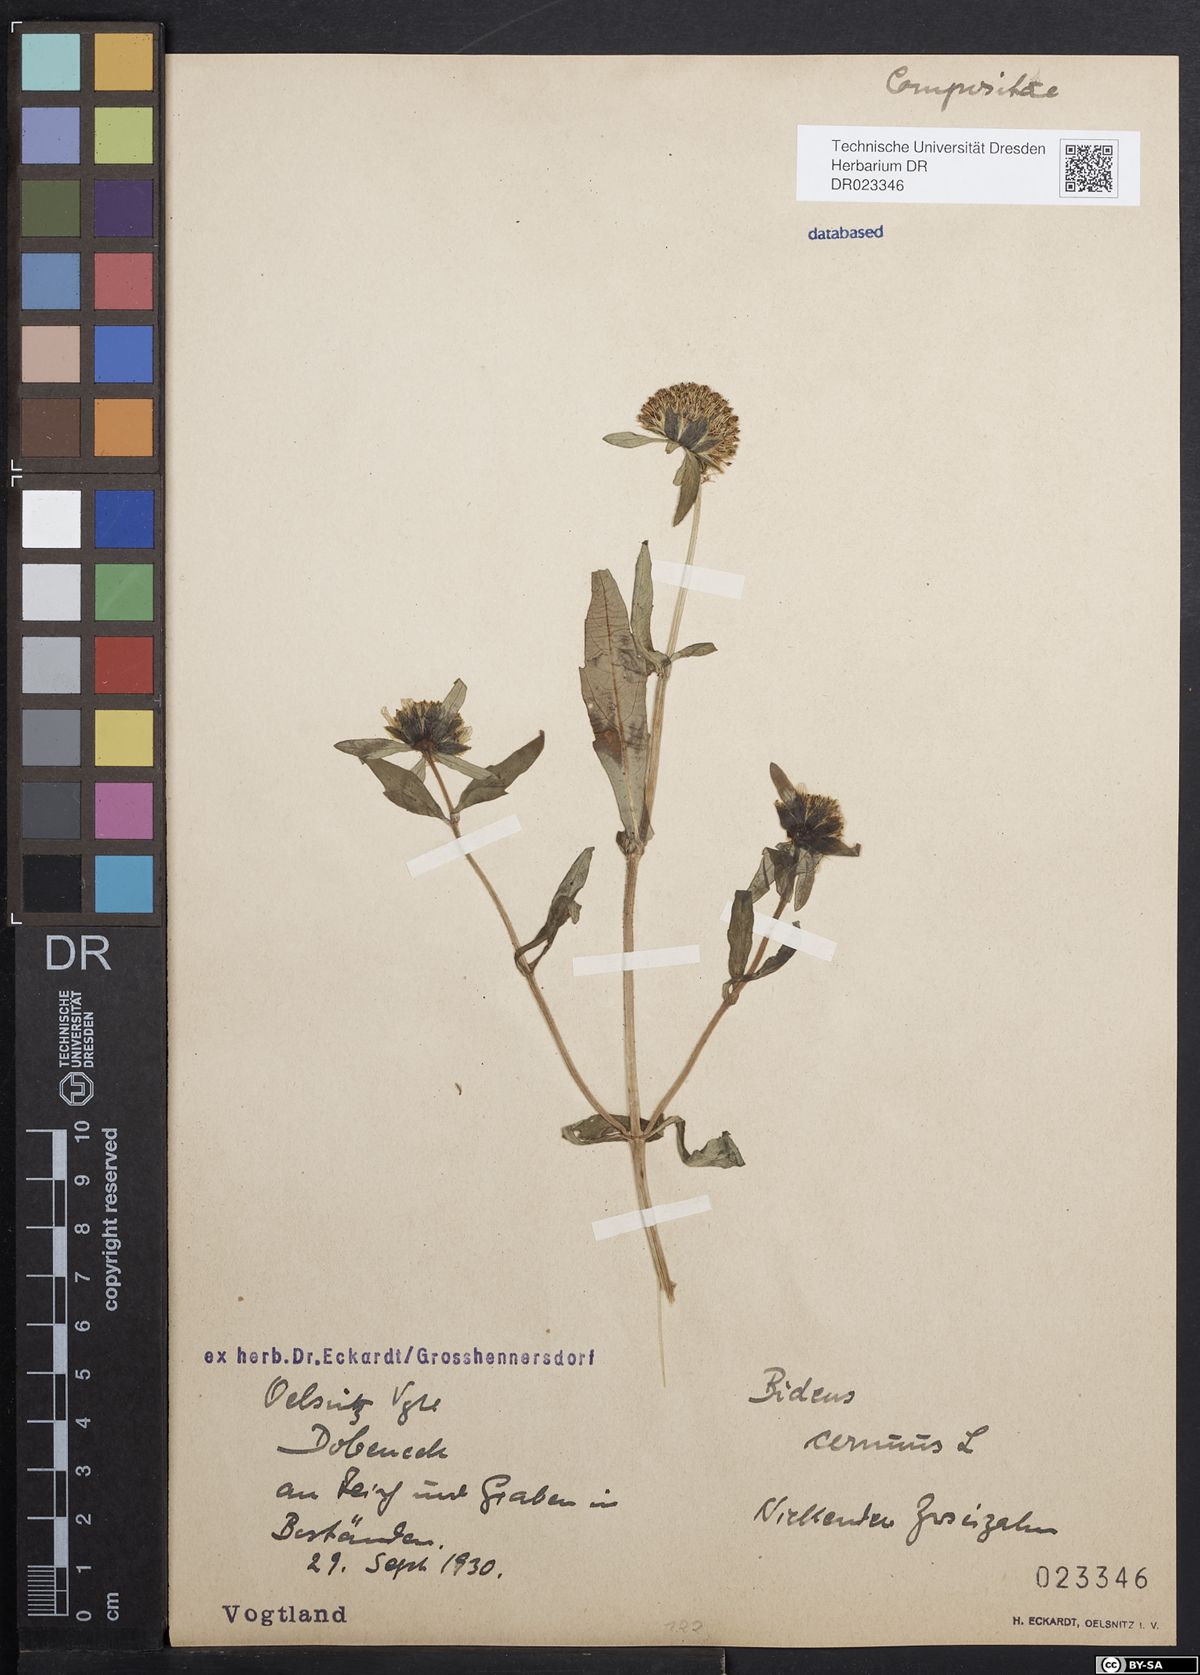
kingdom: Plantae
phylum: Tracheophyta
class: Magnoliopsida
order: Asterales
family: Asteraceae
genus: Bidens
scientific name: Bidens cernua
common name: Nodding bur-marigold
